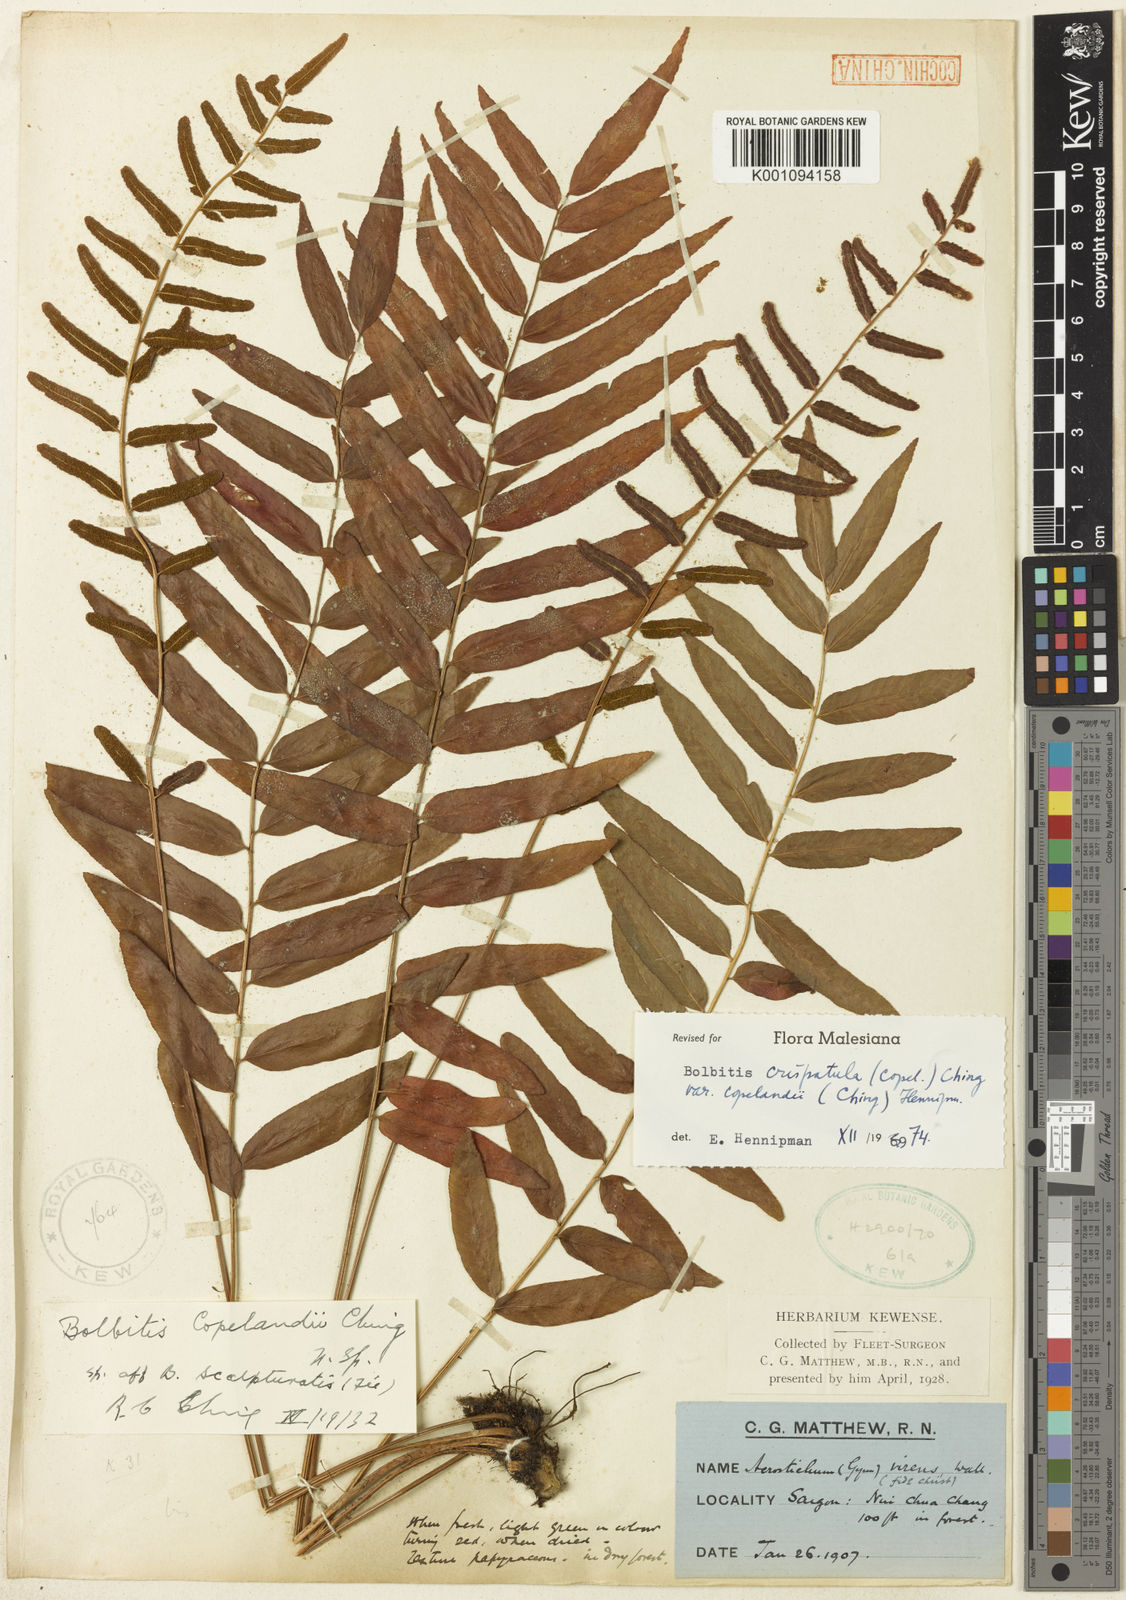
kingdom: Plantae
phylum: Tracheophyta
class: Polypodiopsida
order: Polypodiales
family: Dryopteridaceae
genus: Bolbitis
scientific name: Bolbitis crispatula
